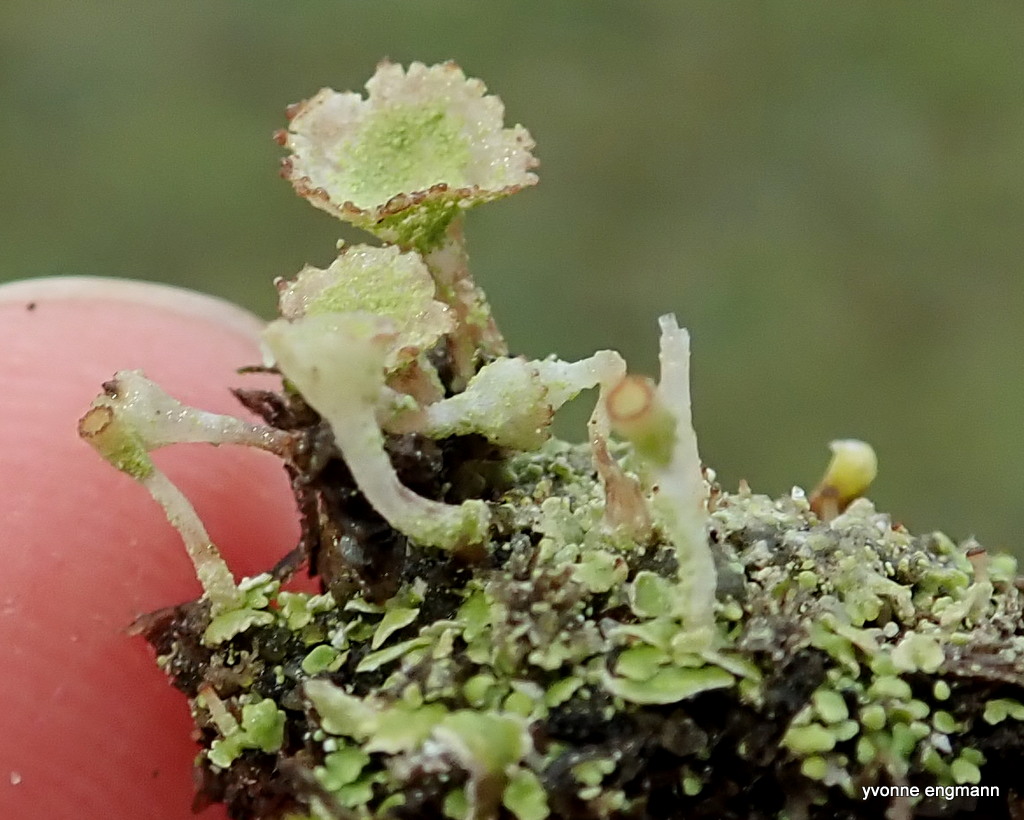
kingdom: Fungi
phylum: Ascomycota
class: Lecanoromycetes
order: Lecanorales
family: Cladoniaceae
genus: Cladonia
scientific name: Cladonia
